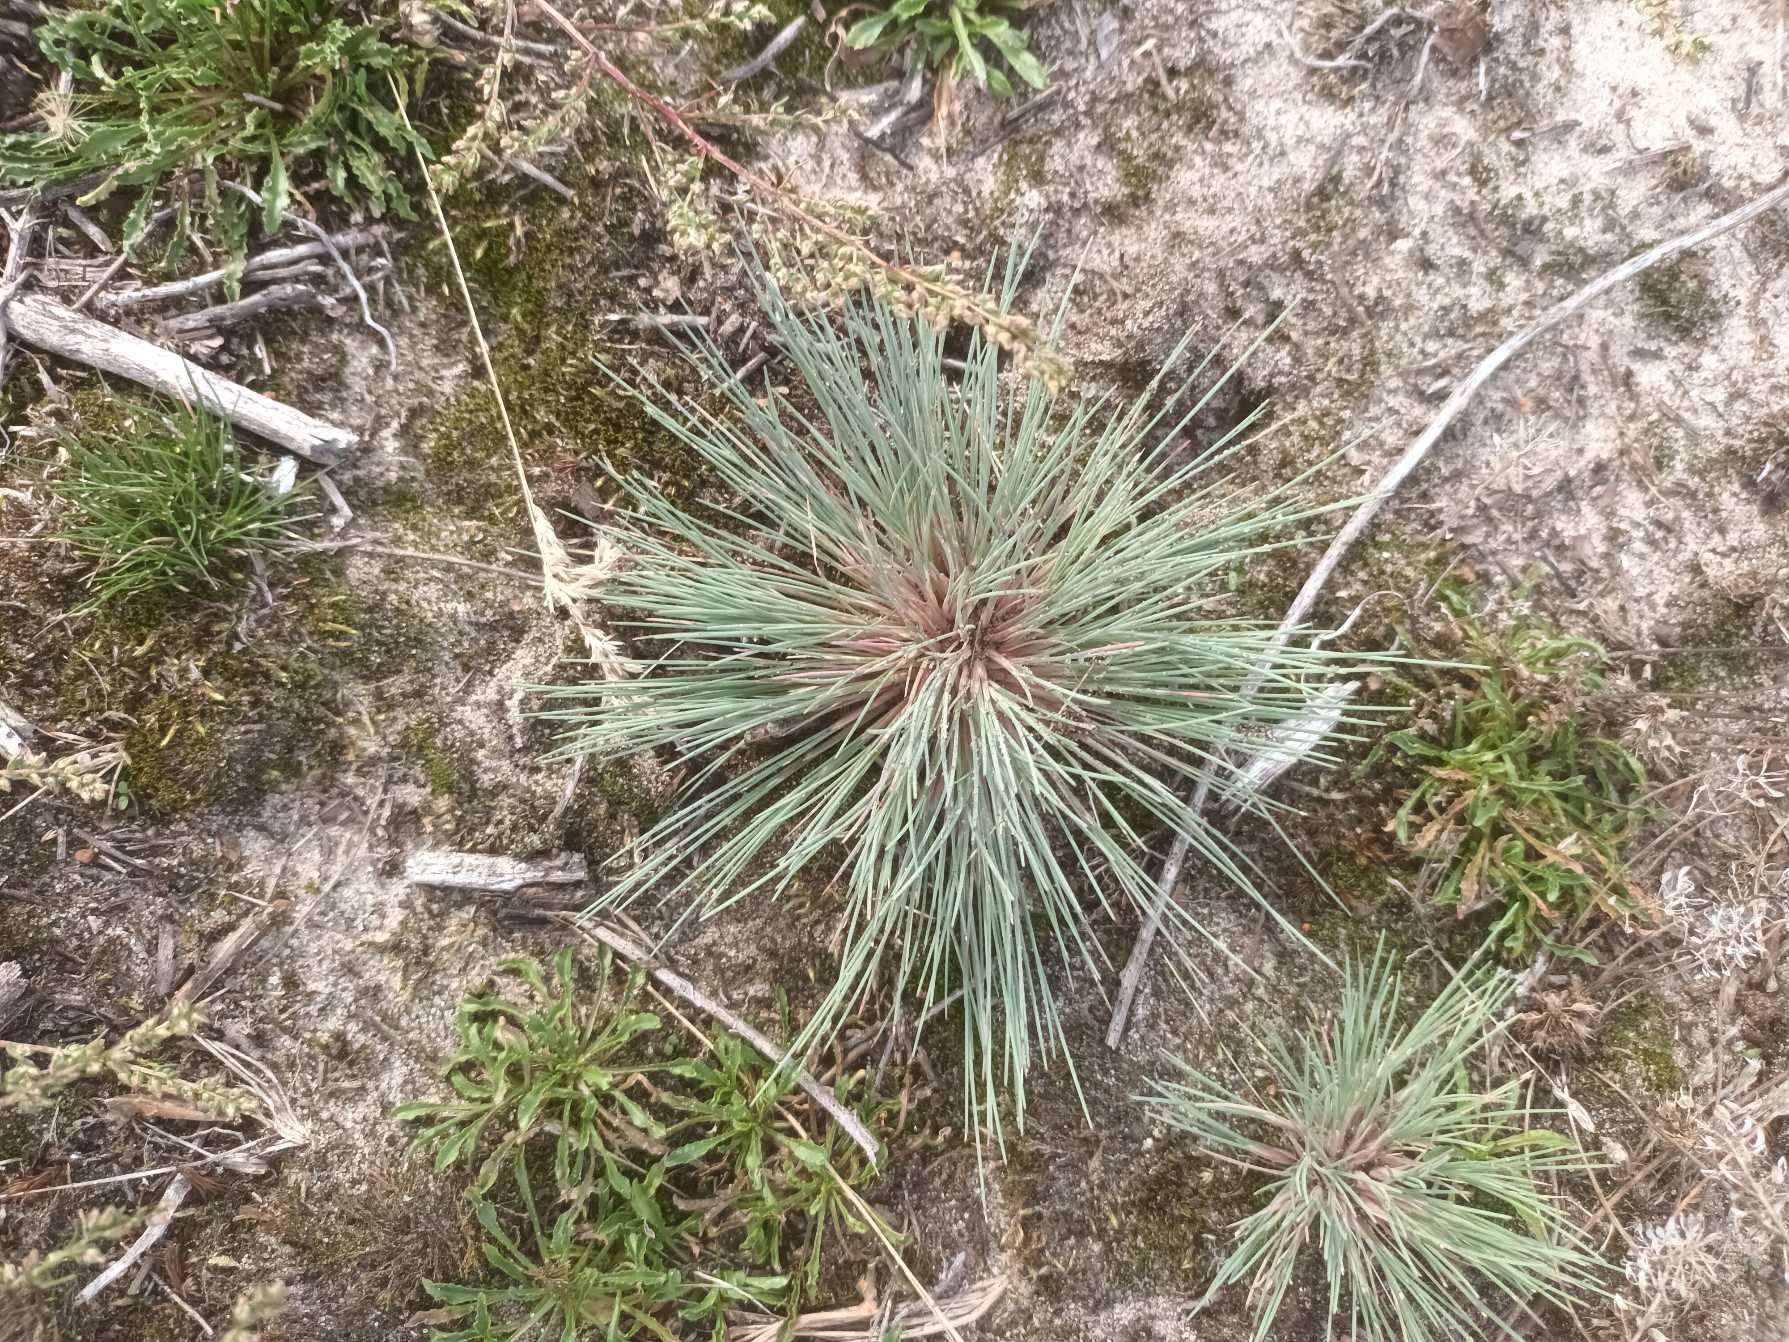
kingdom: Plantae
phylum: Tracheophyta
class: Liliopsida
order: Poales
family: Poaceae
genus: Corynephorus
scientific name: Corynephorus canescens
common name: Sandskæg
